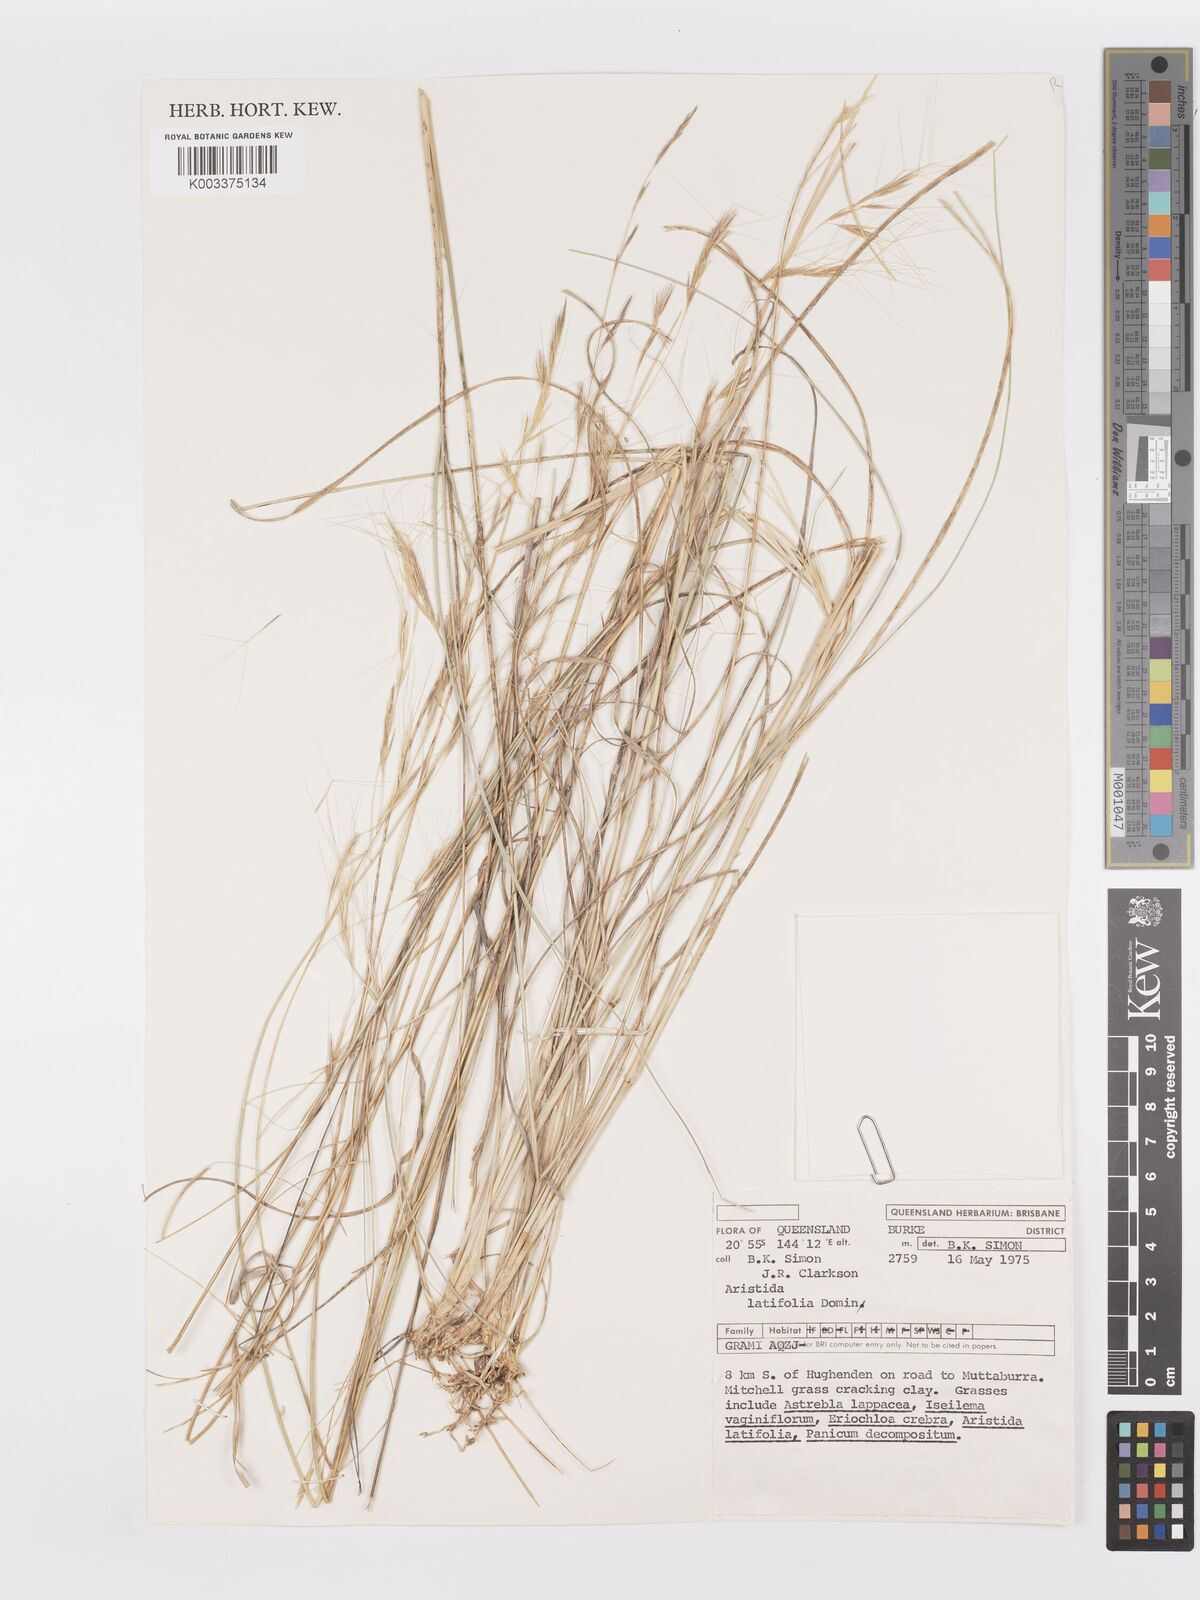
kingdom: Plantae
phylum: Tracheophyta
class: Liliopsida
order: Poales
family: Poaceae
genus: Aristida
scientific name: Aristida latifolia
